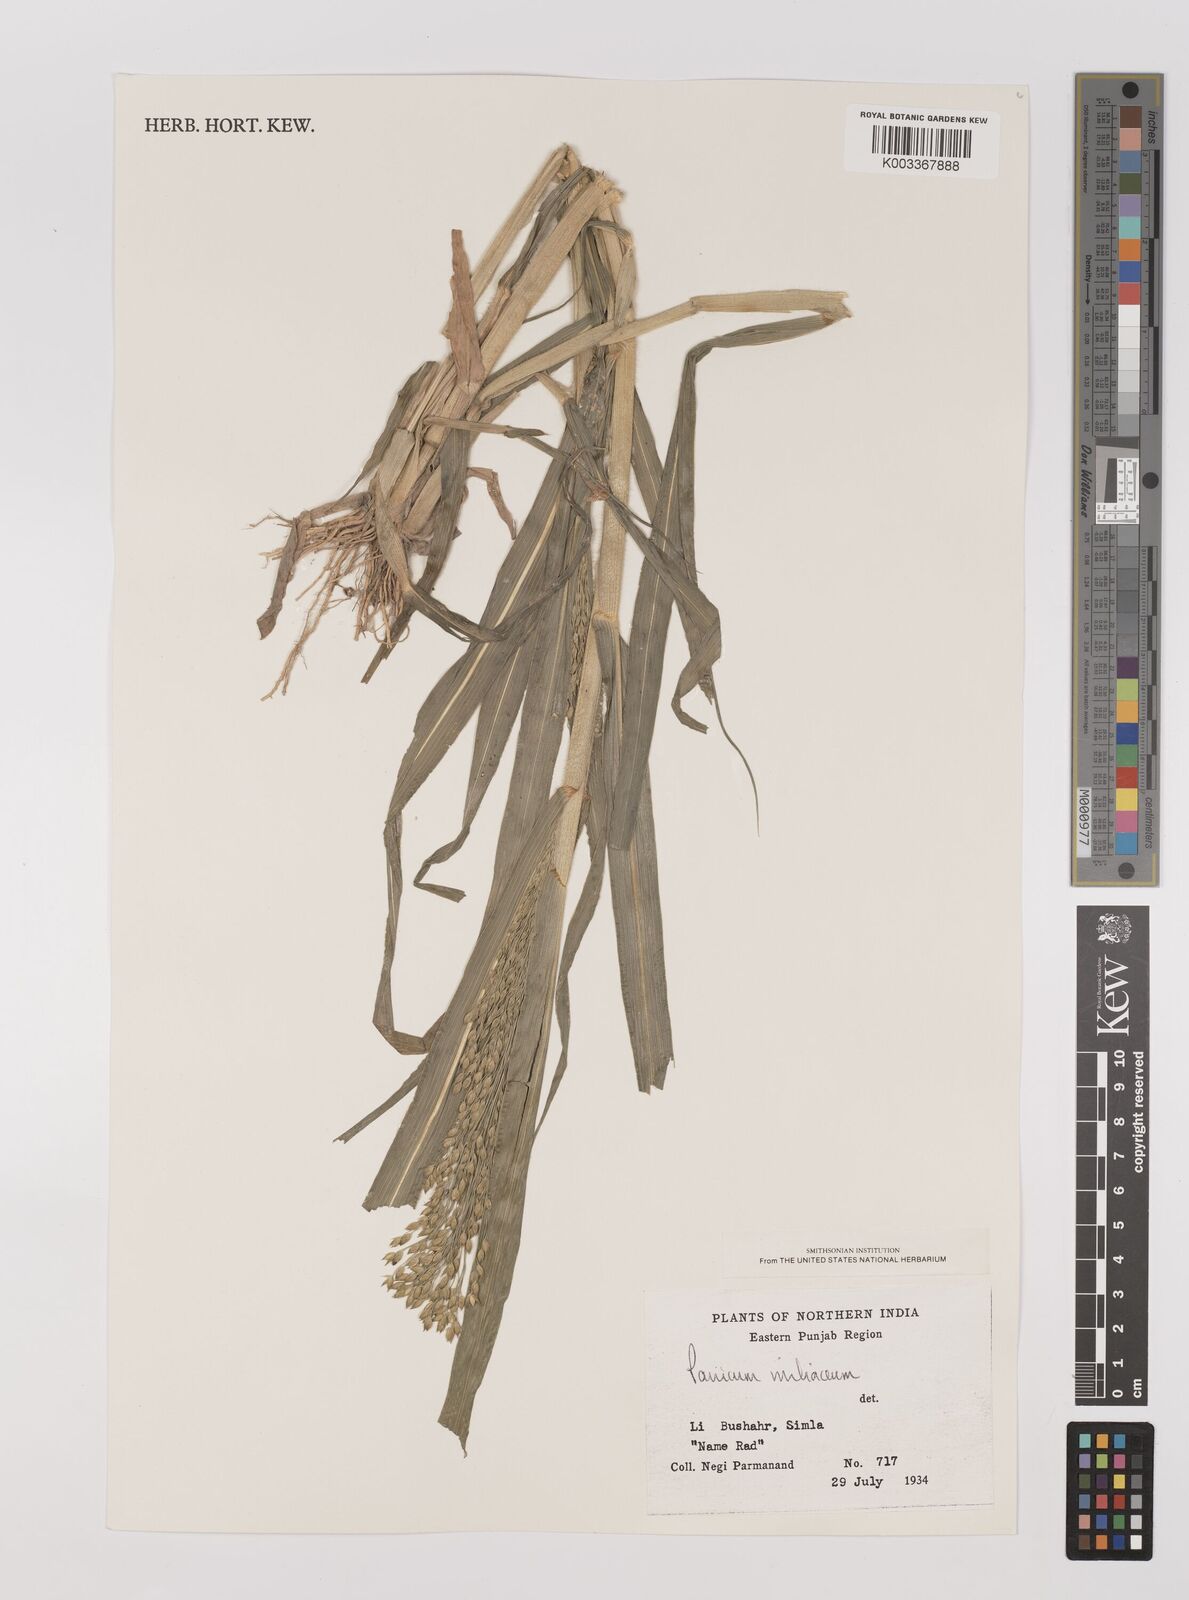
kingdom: Plantae
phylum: Tracheophyta
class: Liliopsida
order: Poales
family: Poaceae
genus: Panicum
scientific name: Panicum miliaceum
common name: Common millet
